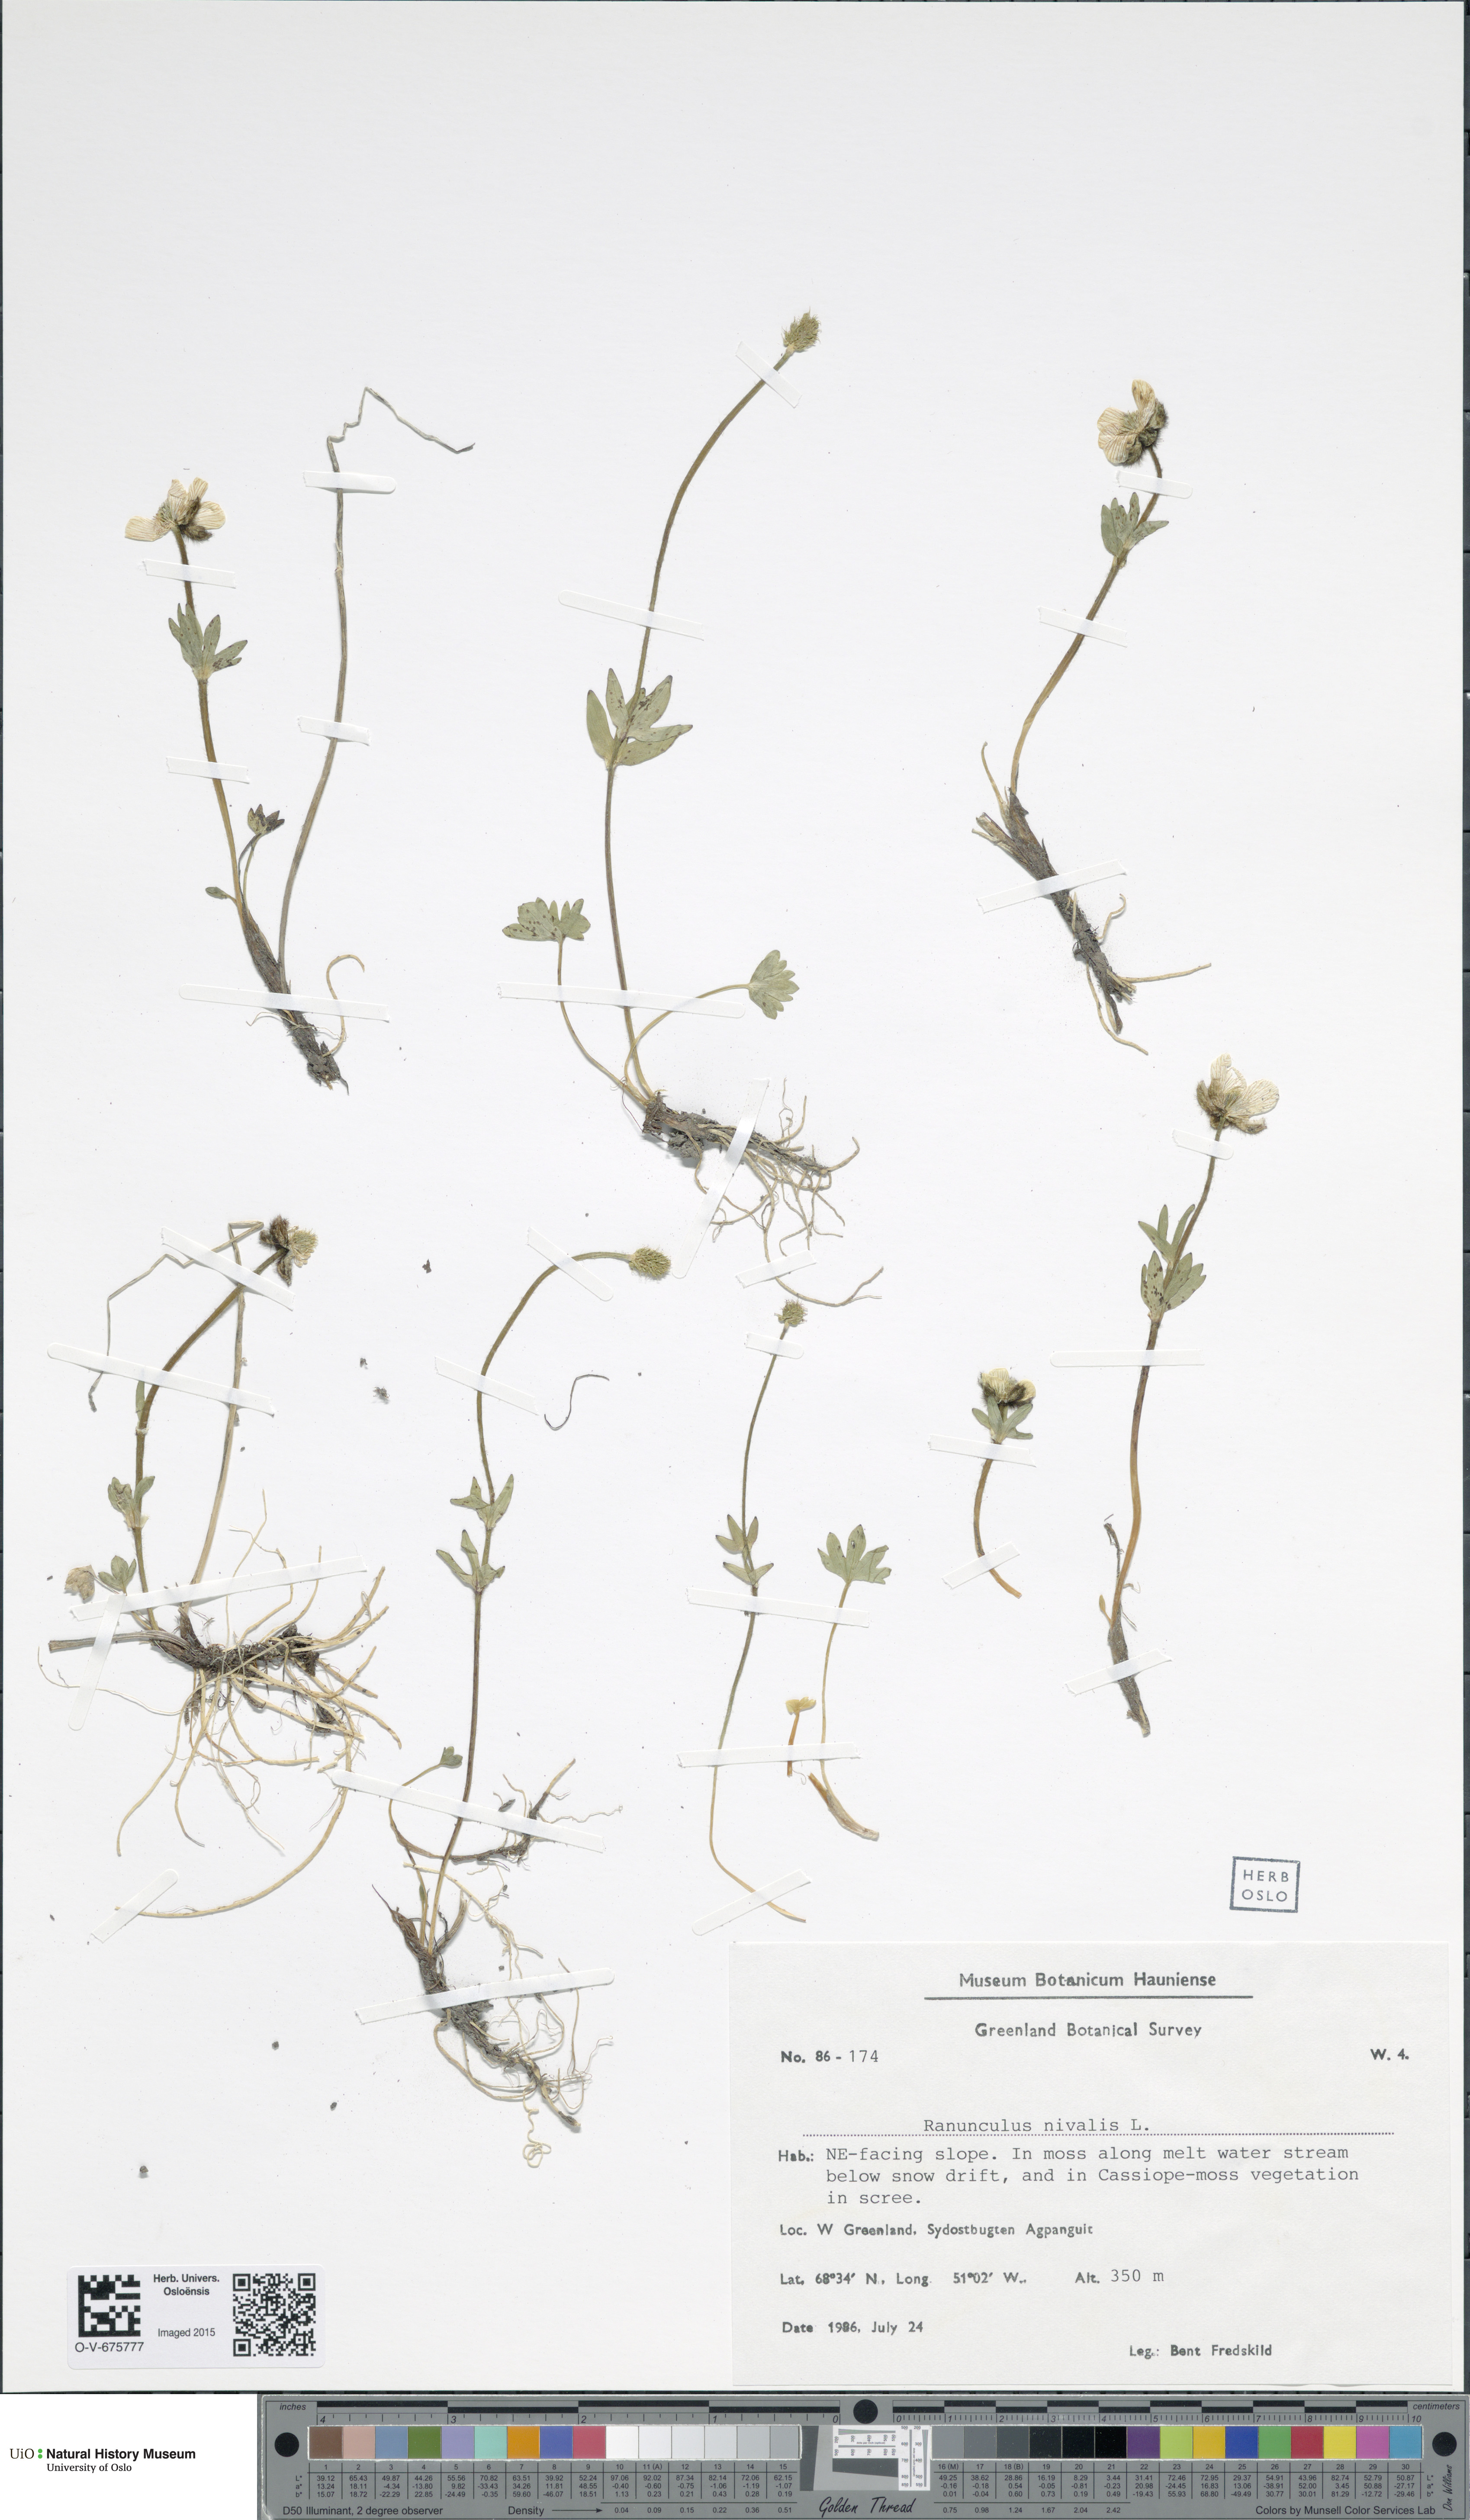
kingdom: Plantae
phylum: Tracheophyta
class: Magnoliopsida
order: Ranunculales
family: Ranunculaceae
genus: Ranunculus
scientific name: Ranunculus nivalis
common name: Snow buttercup
